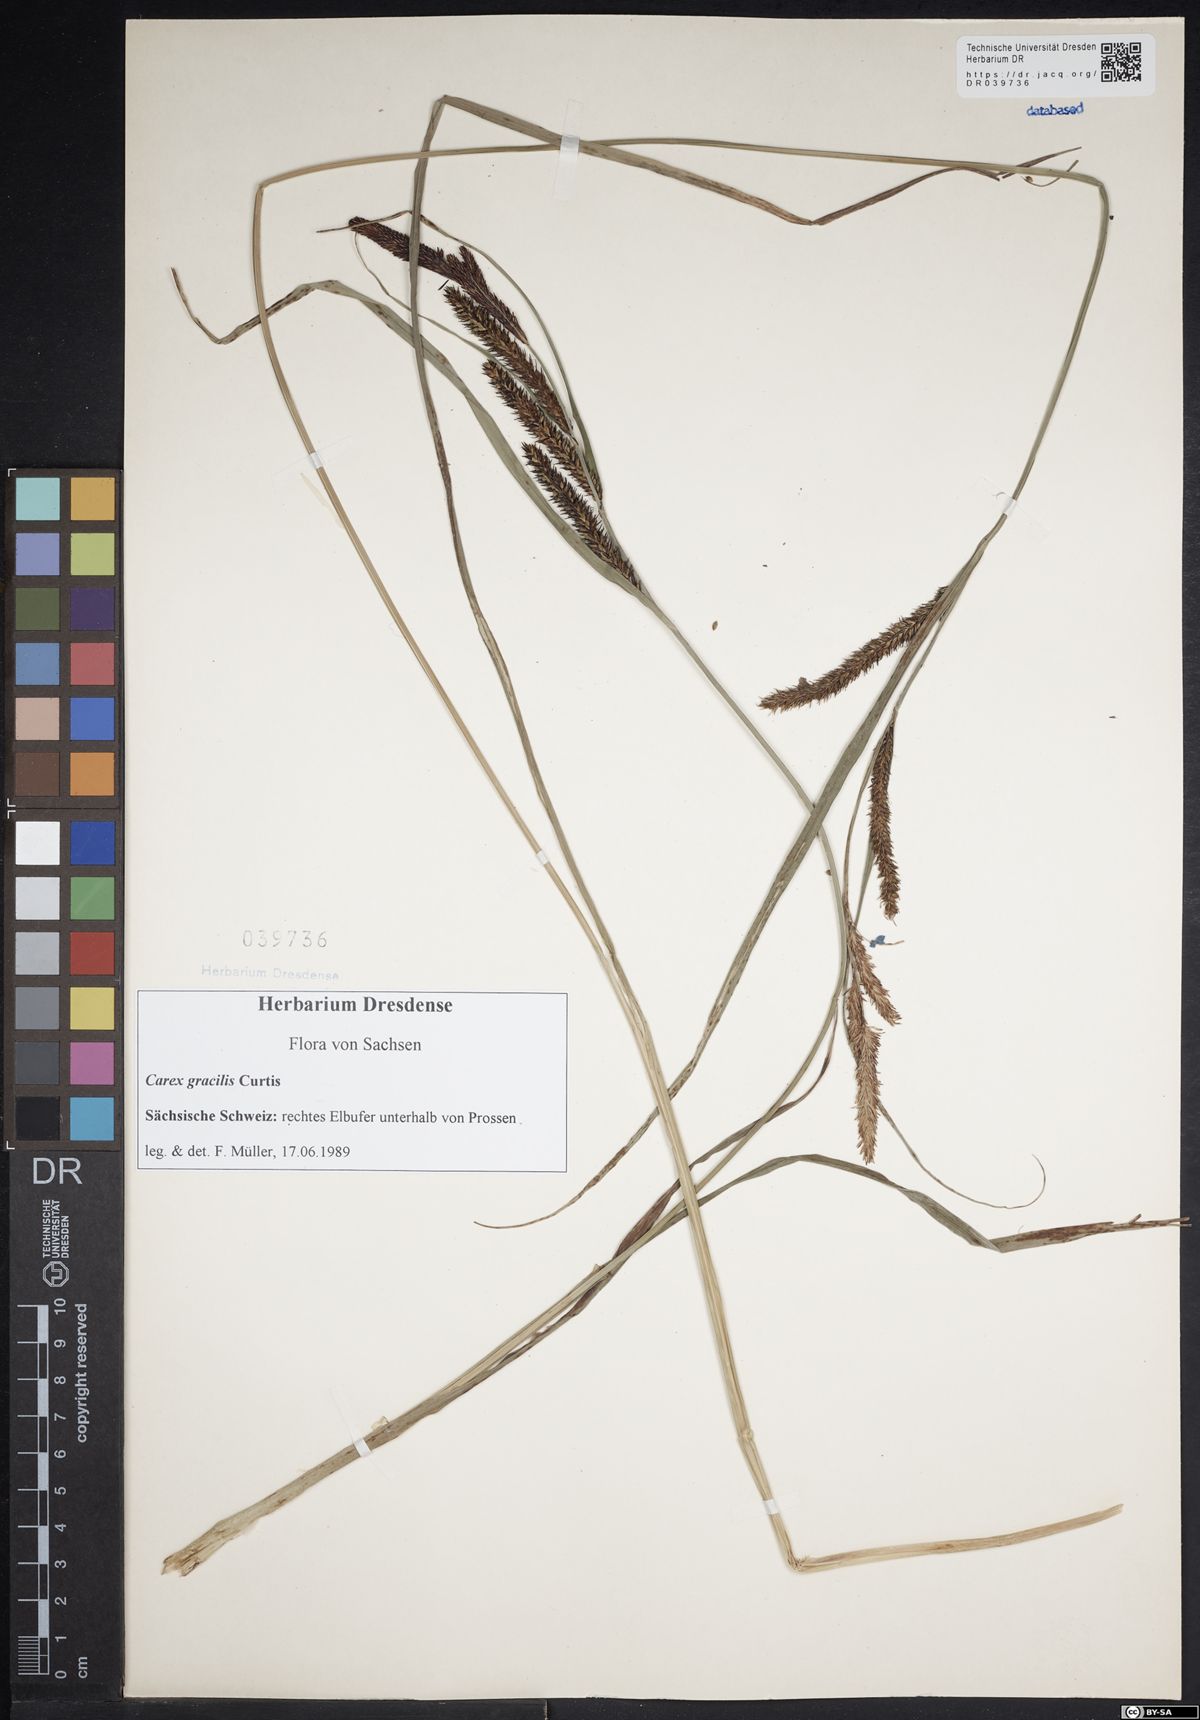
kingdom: Plantae
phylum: Tracheophyta
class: Liliopsida
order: Poales
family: Cyperaceae
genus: Carex
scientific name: Carex acuta
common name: Slender tufted-sedge
